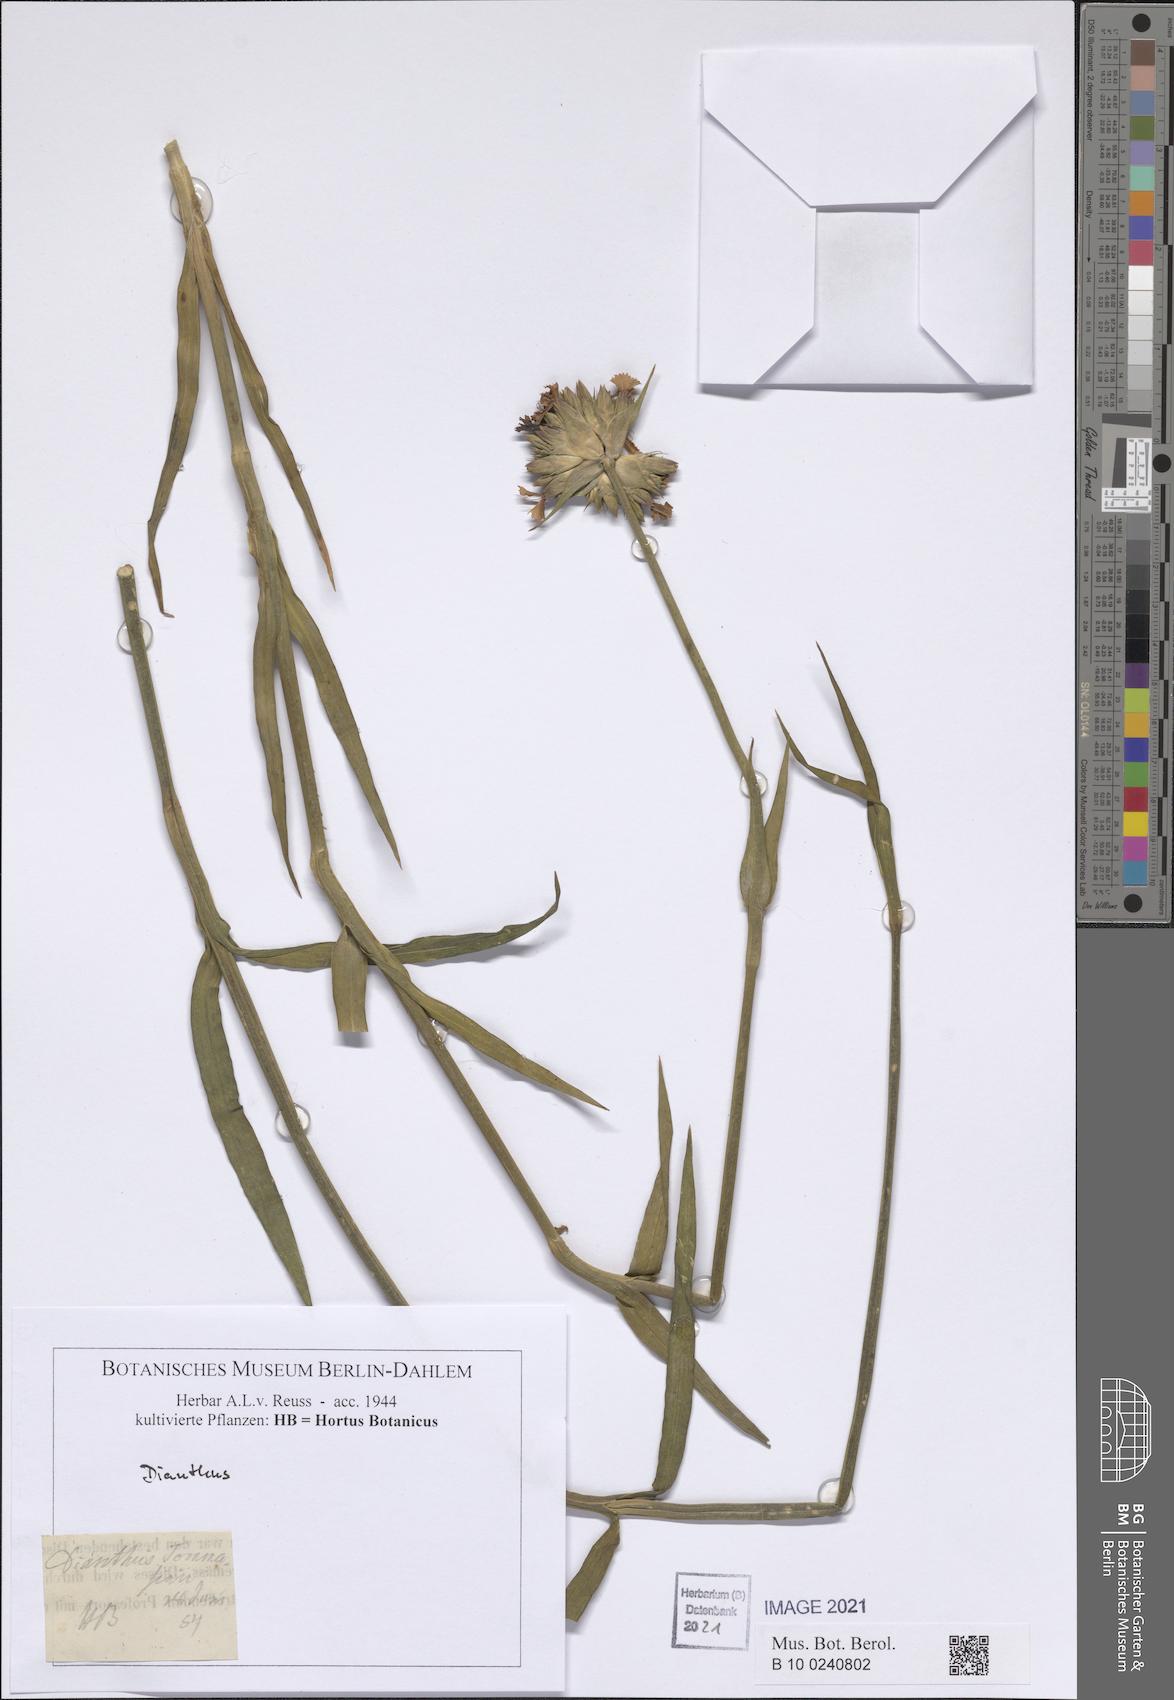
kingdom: Plantae
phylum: Tracheophyta
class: Magnoliopsida
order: Caryophyllales
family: Caryophyllaceae
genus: Dianthus
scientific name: Dianthus
